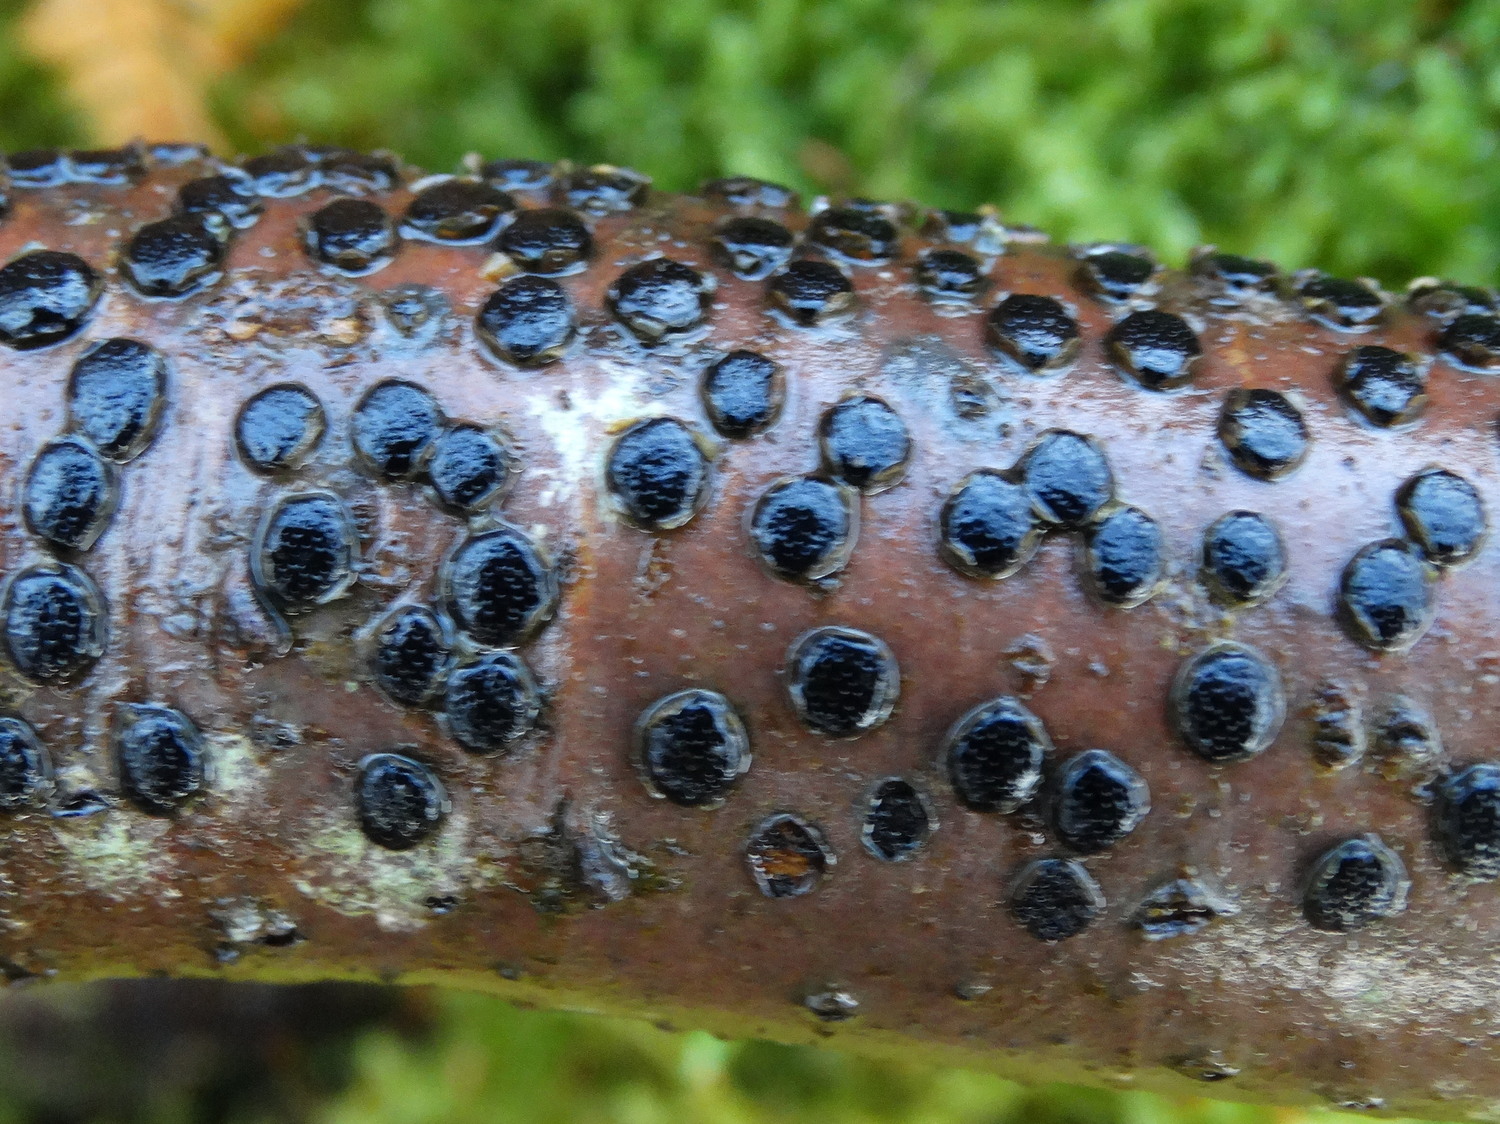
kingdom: Fungi
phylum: Ascomycota
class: Sordariomycetes
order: Xylariales
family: Diatrypaceae
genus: Diatrype
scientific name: Diatrype disciformis
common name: kant-kulskorpe
